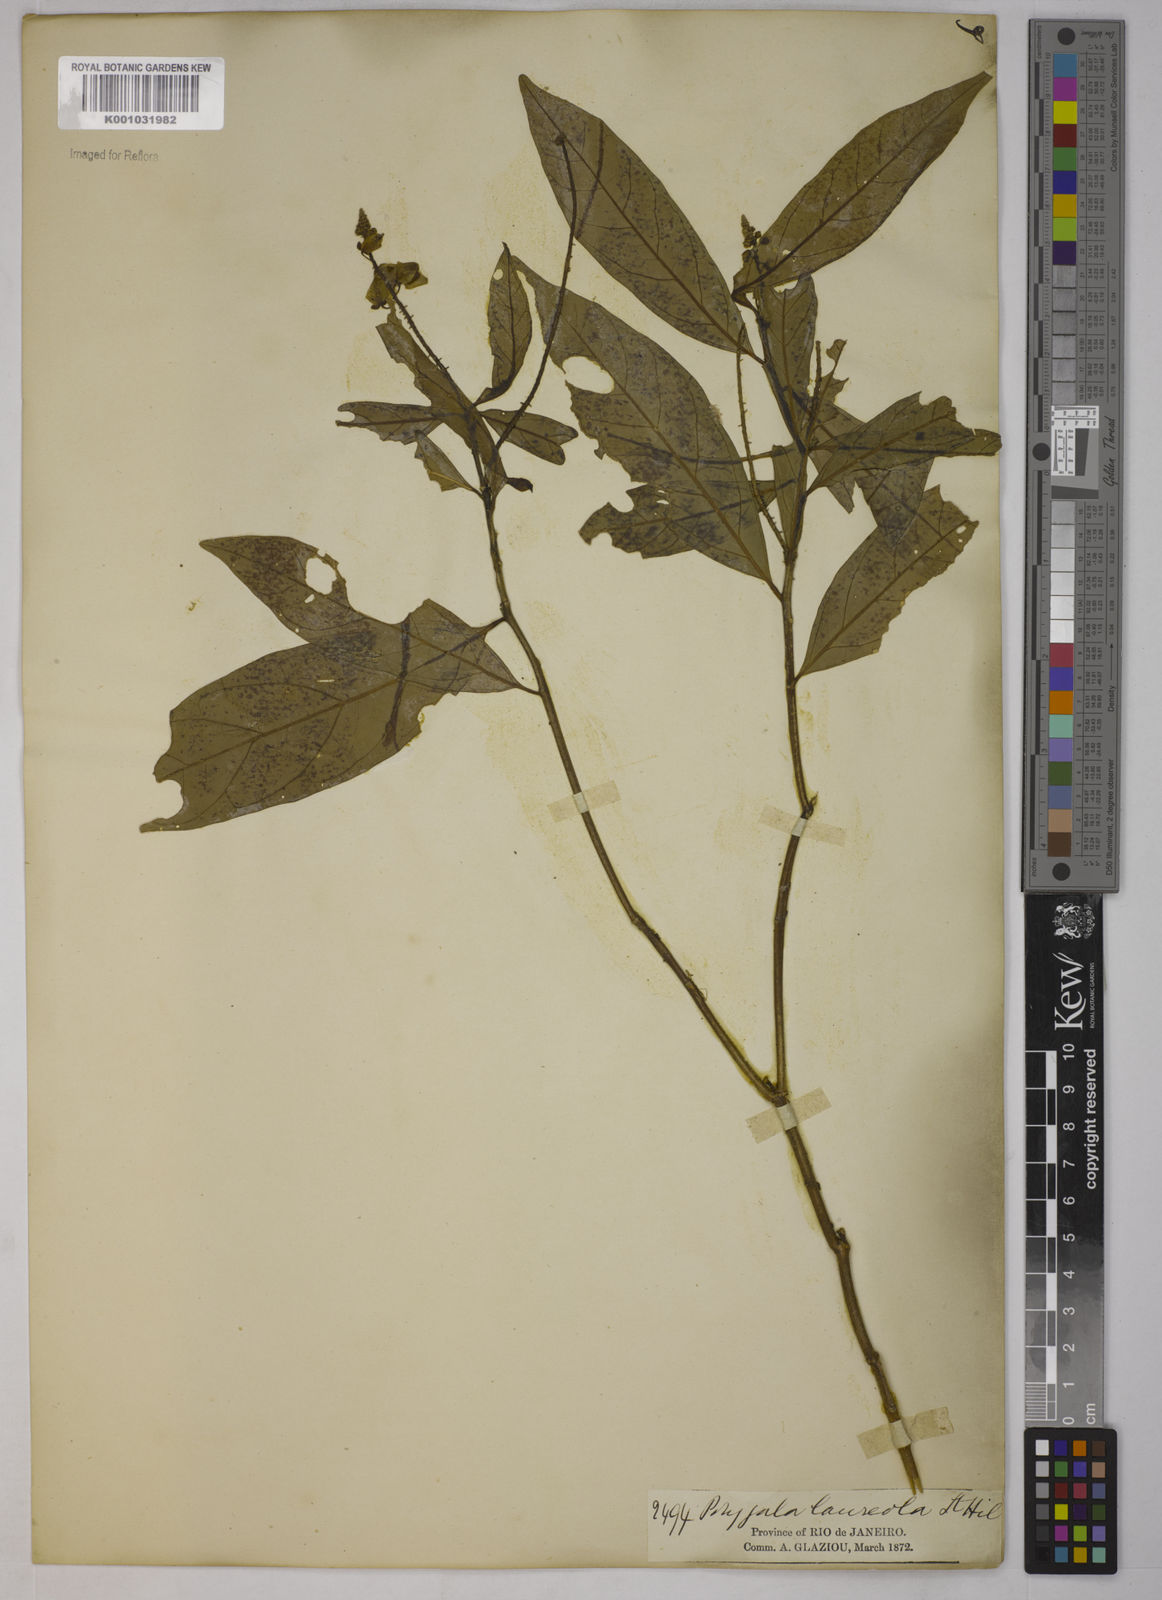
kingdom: Plantae
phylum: Tracheophyta
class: Magnoliopsida
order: Fabales
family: Polygalaceae
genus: Caamembeca
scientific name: Caamembeca salicifolia
